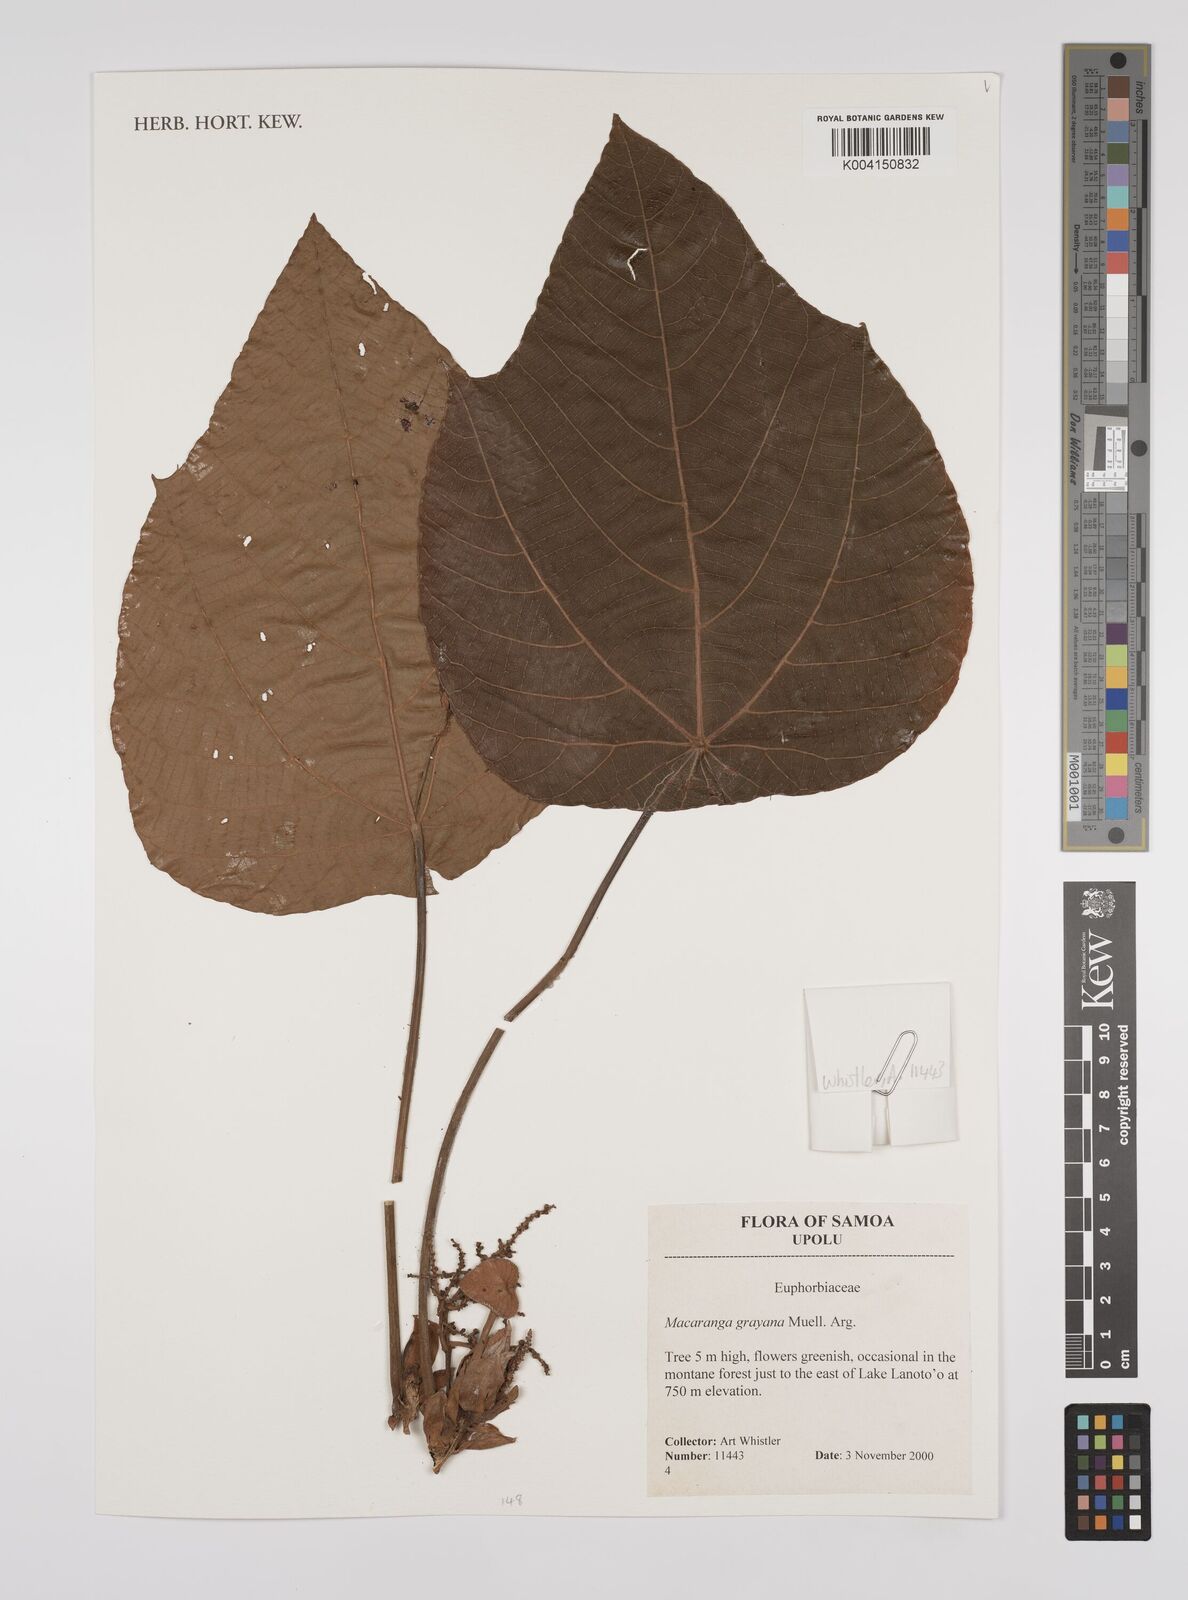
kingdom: Plantae
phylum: Tracheophyta
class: Magnoliopsida
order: Malpighiales
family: Euphorbiaceae
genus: Macaranga
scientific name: Macaranga grayana
